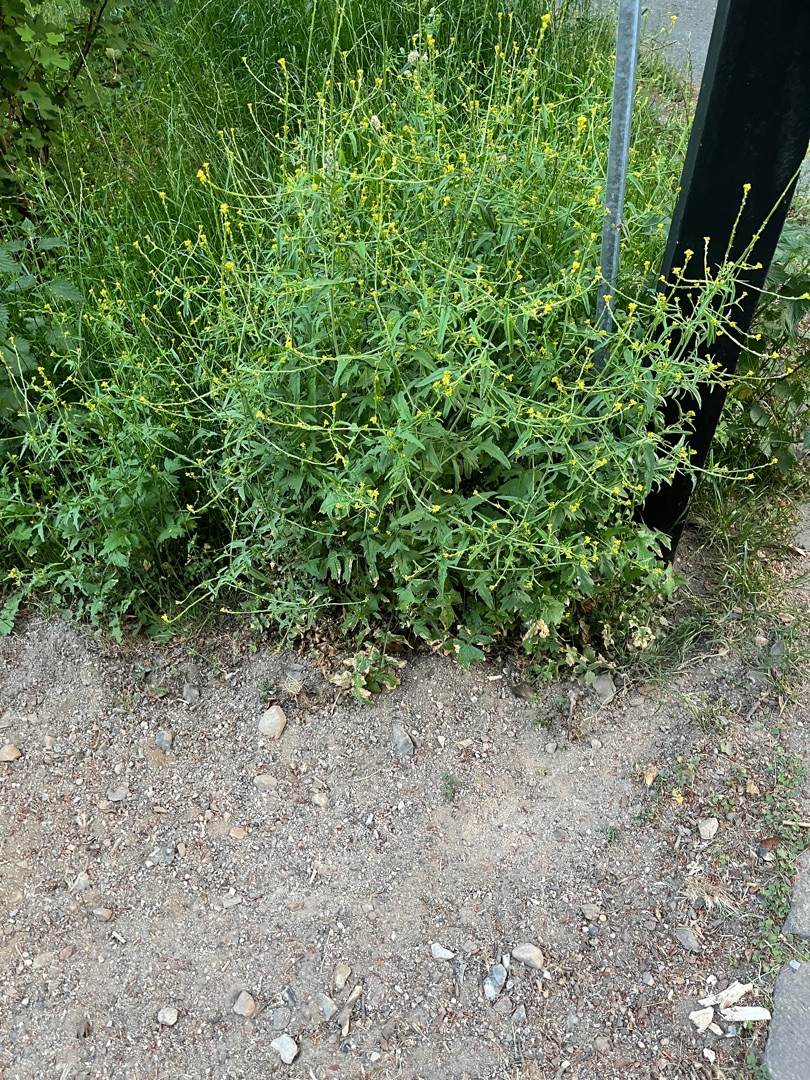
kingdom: Plantae
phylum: Tracheophyta
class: Magnoliopsida
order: Brassicales
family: Brassicaceae
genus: Sisymbrium
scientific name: Sisymbrium officinale
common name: Rank vejsennep
